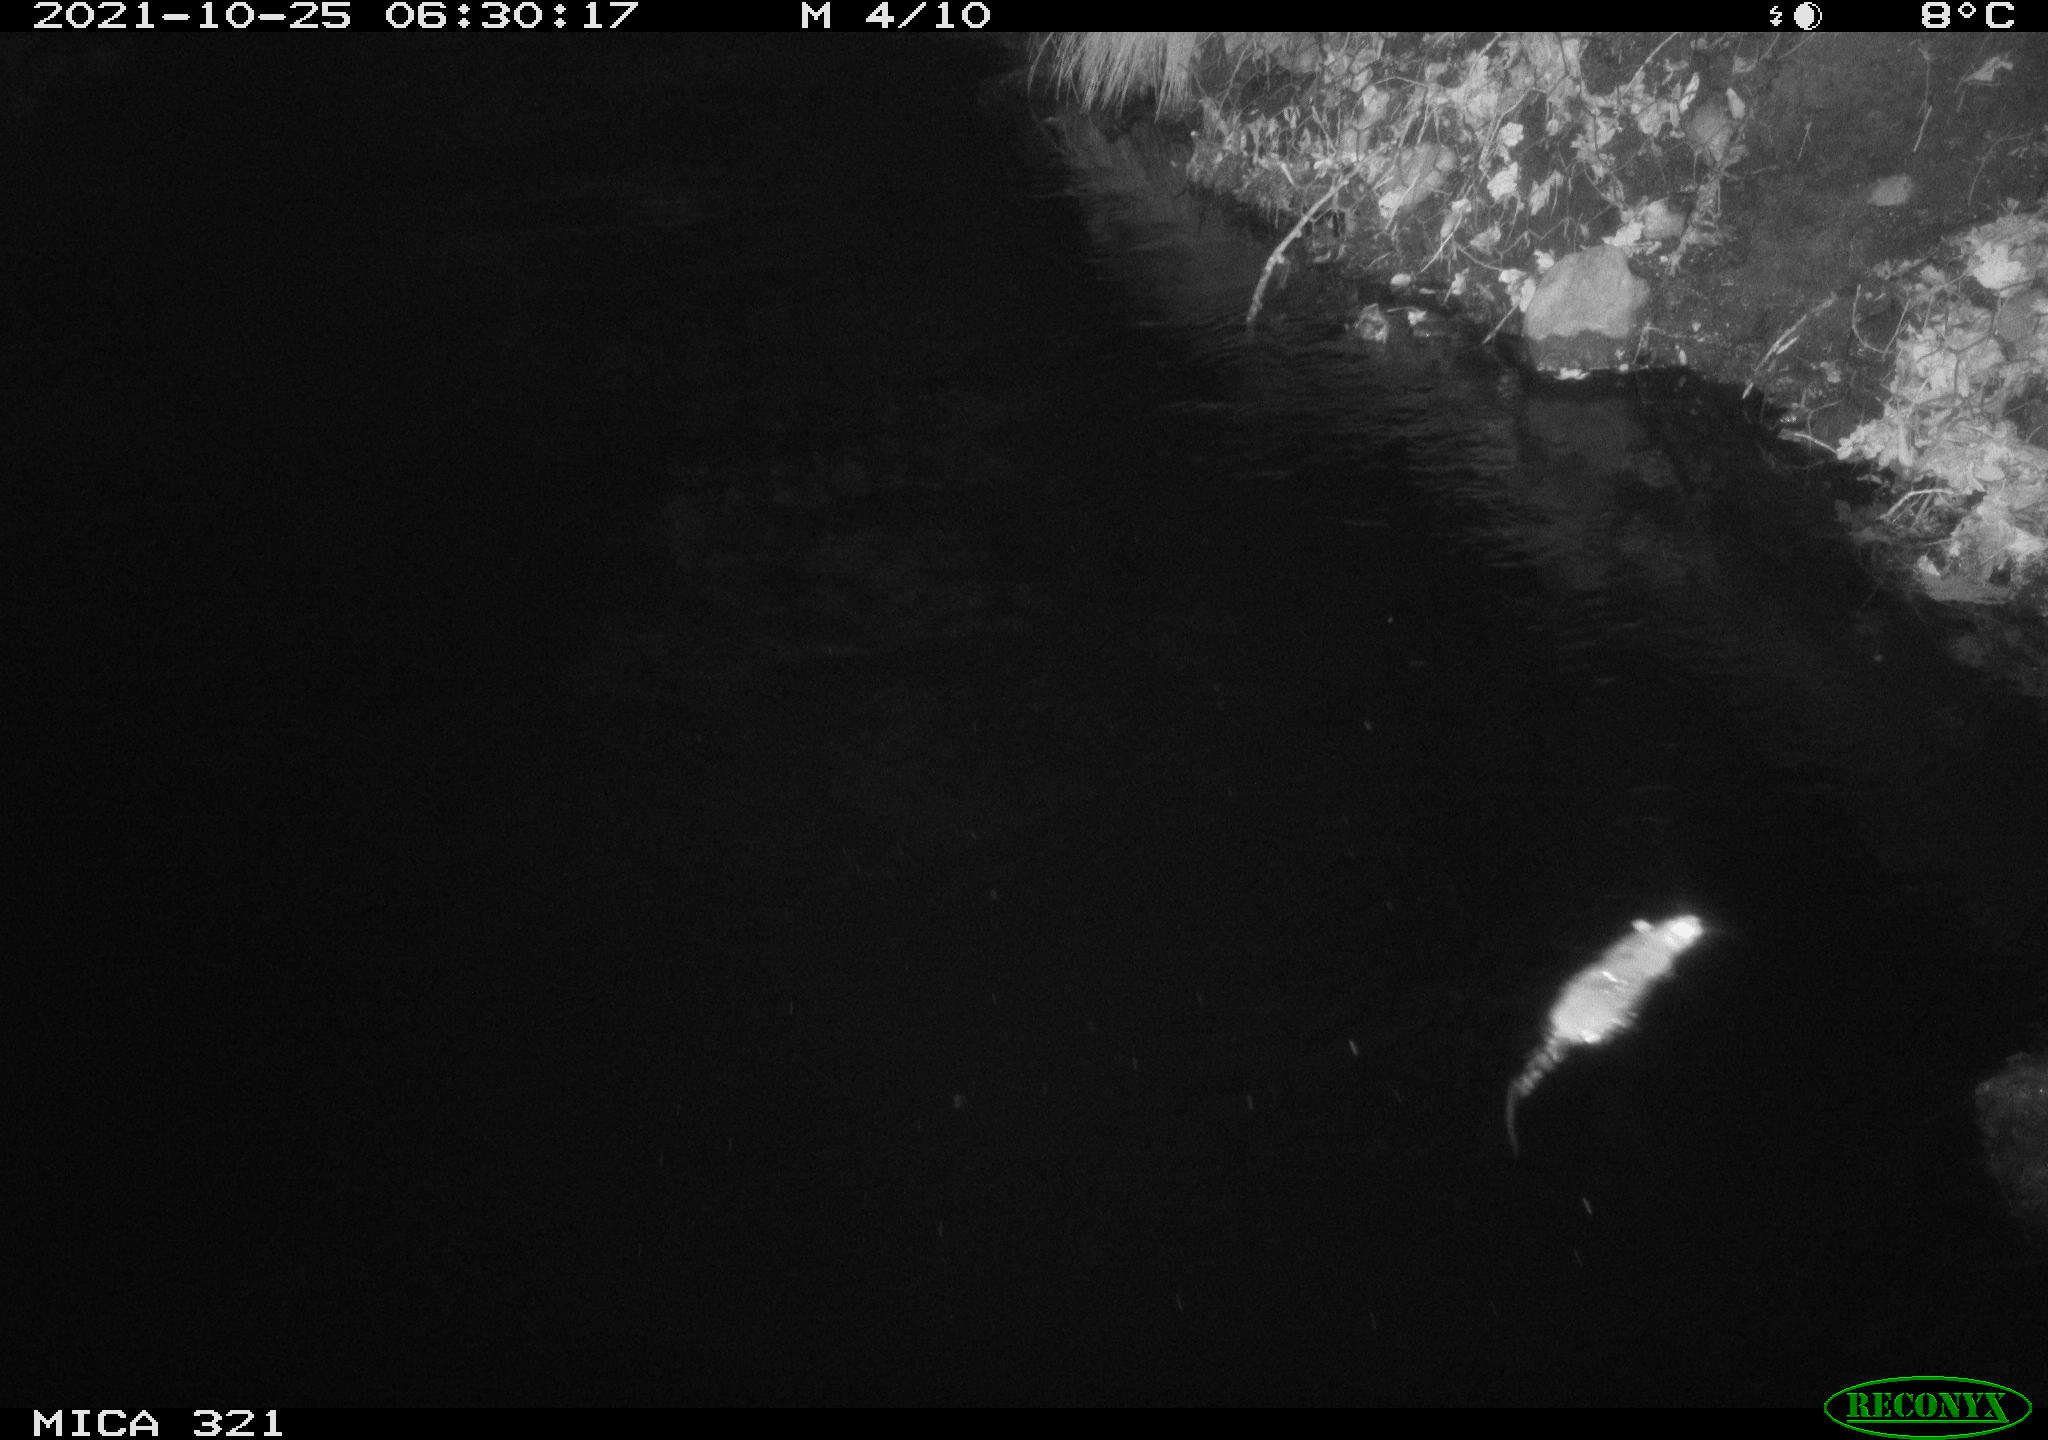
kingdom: Animalia
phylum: Chordata
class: Mammalia
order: Rodentia
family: Muridae
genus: Rattus
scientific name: Rattus norvegicus
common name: Brown rat
